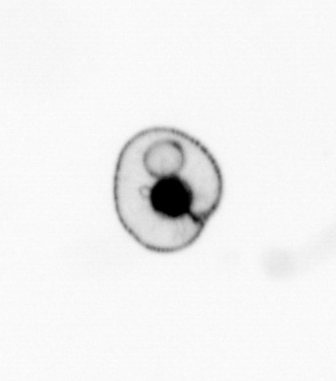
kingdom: Chromista
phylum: Myzozoa
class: Dinophyceae
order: Noctilucales
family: Noctilucaceae
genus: Noctiluca
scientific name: Noctiluca scintillans
